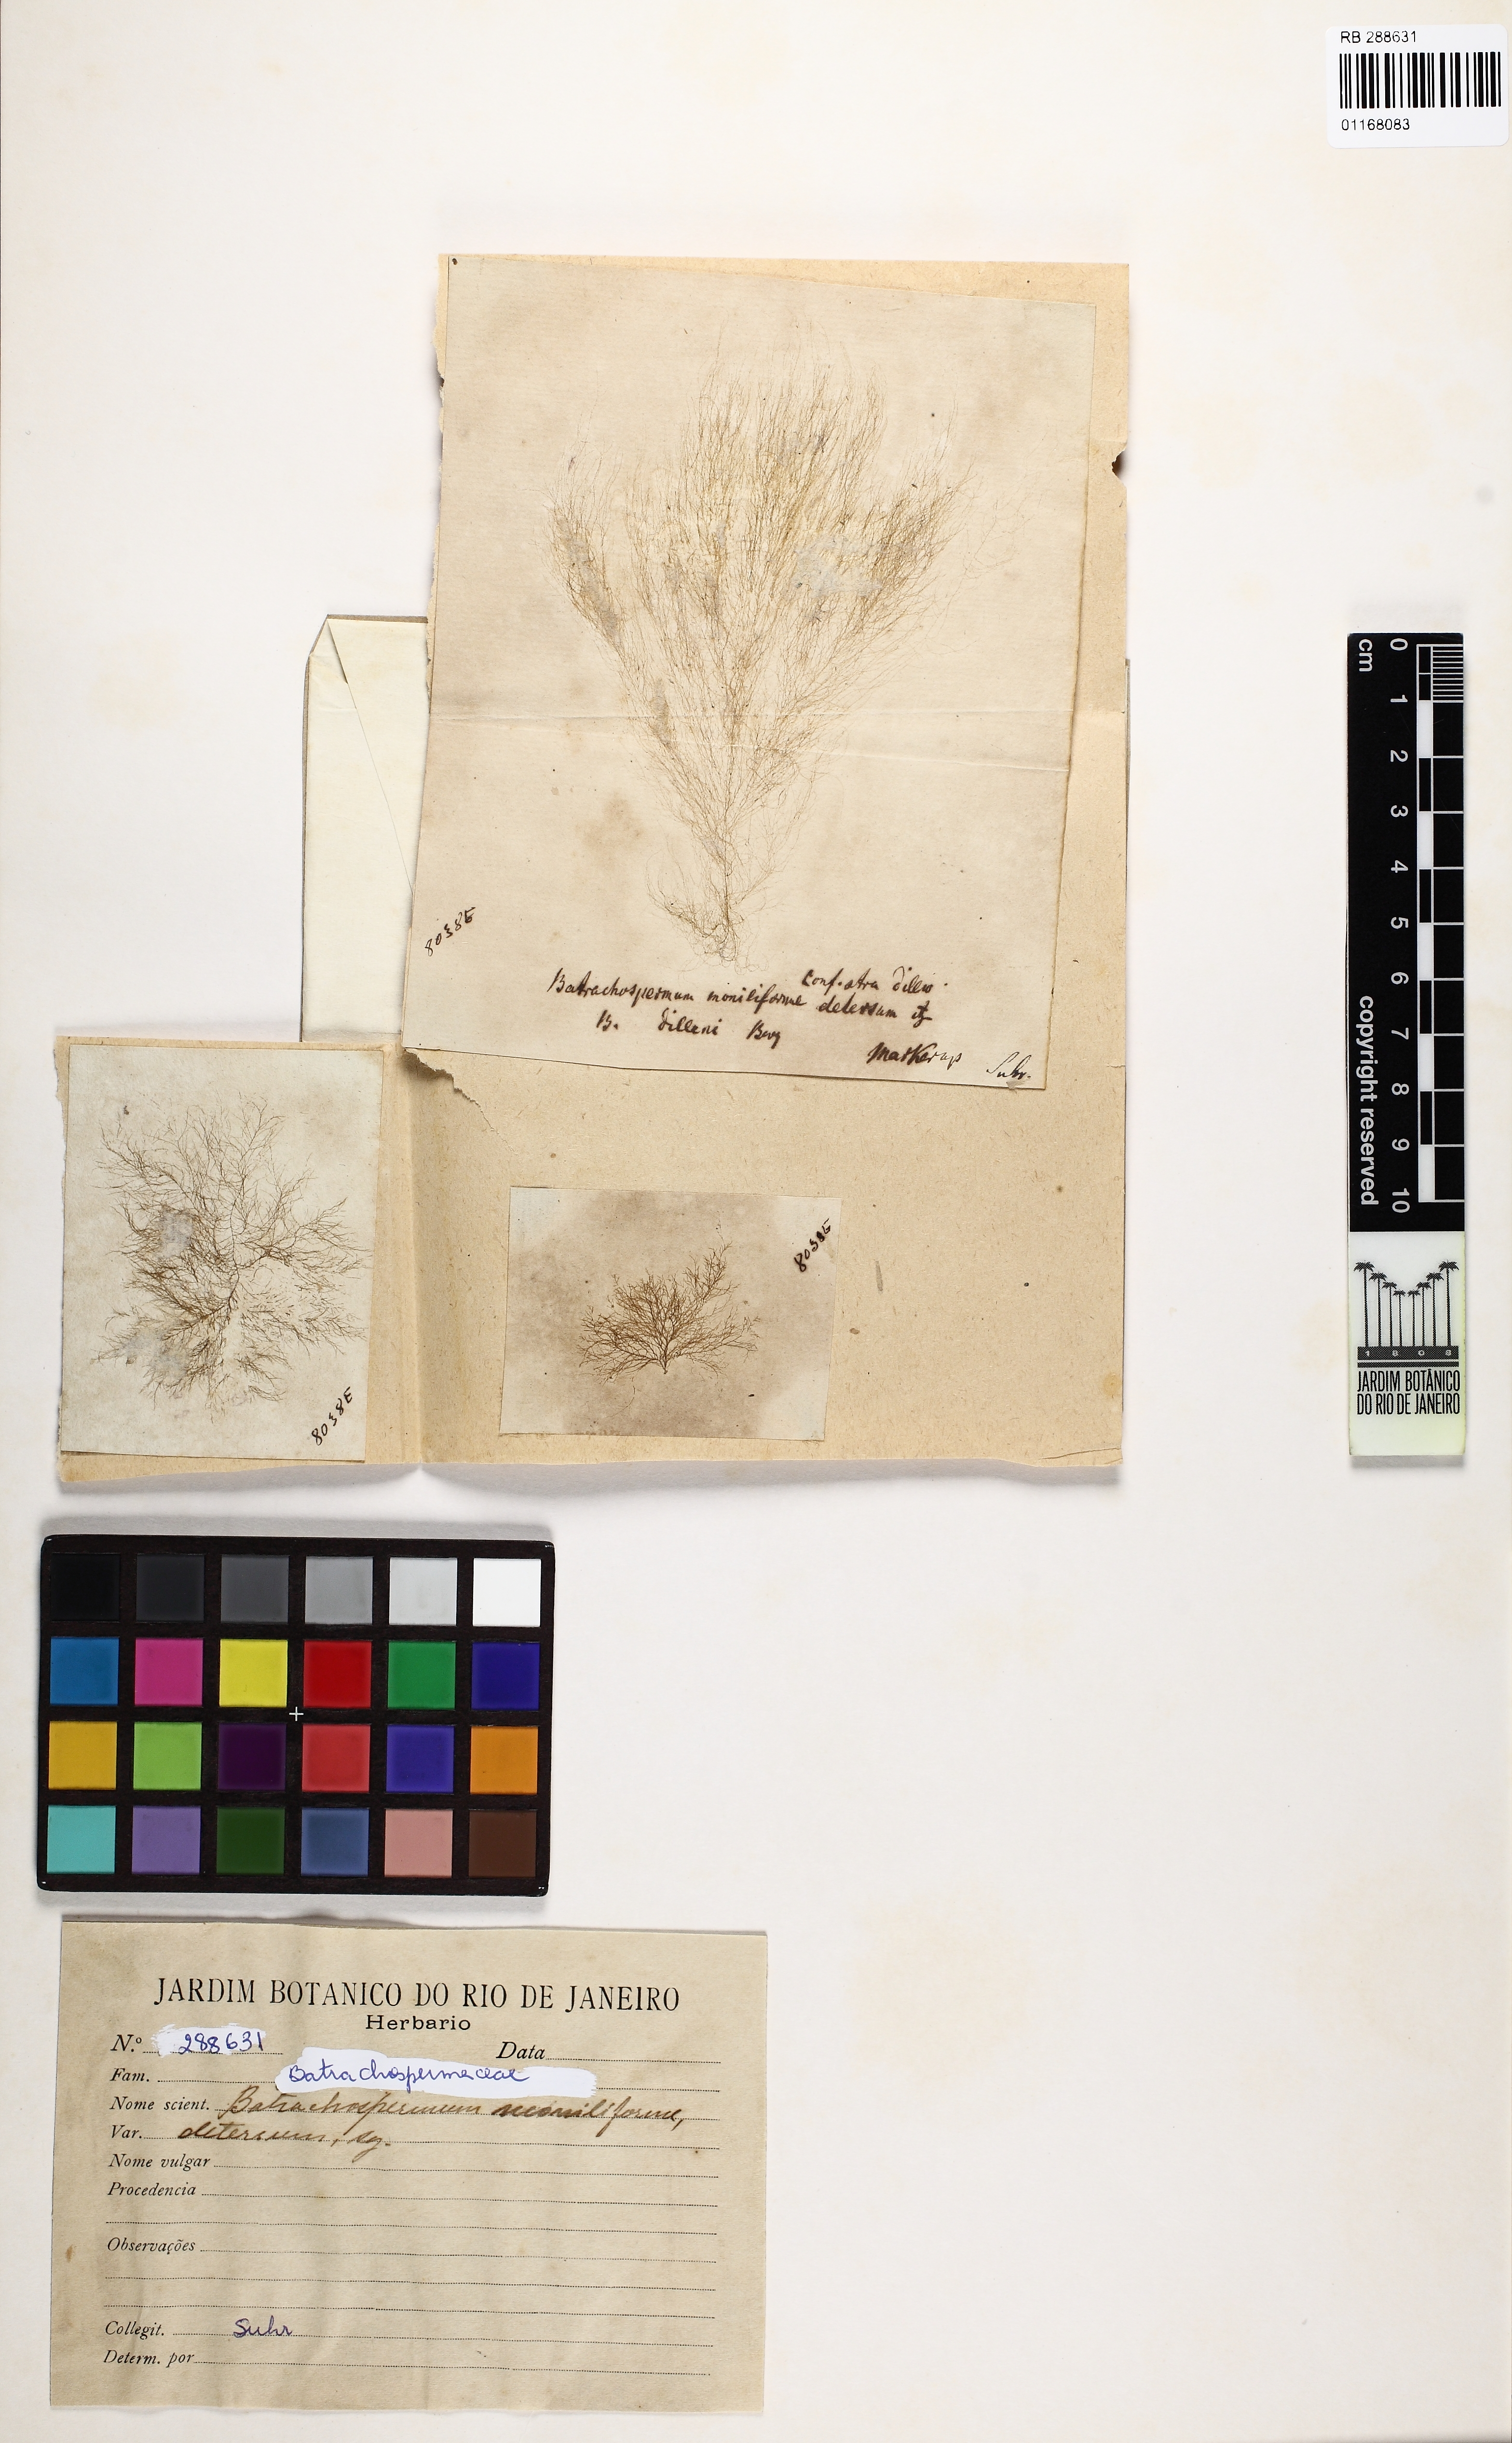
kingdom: Plantae
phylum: Rhodophyta
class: Florideophyceae
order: Batrachospermales
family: Batrachospermaceae
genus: Batrachospermum
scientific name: Batrachospermum gelatinosum
